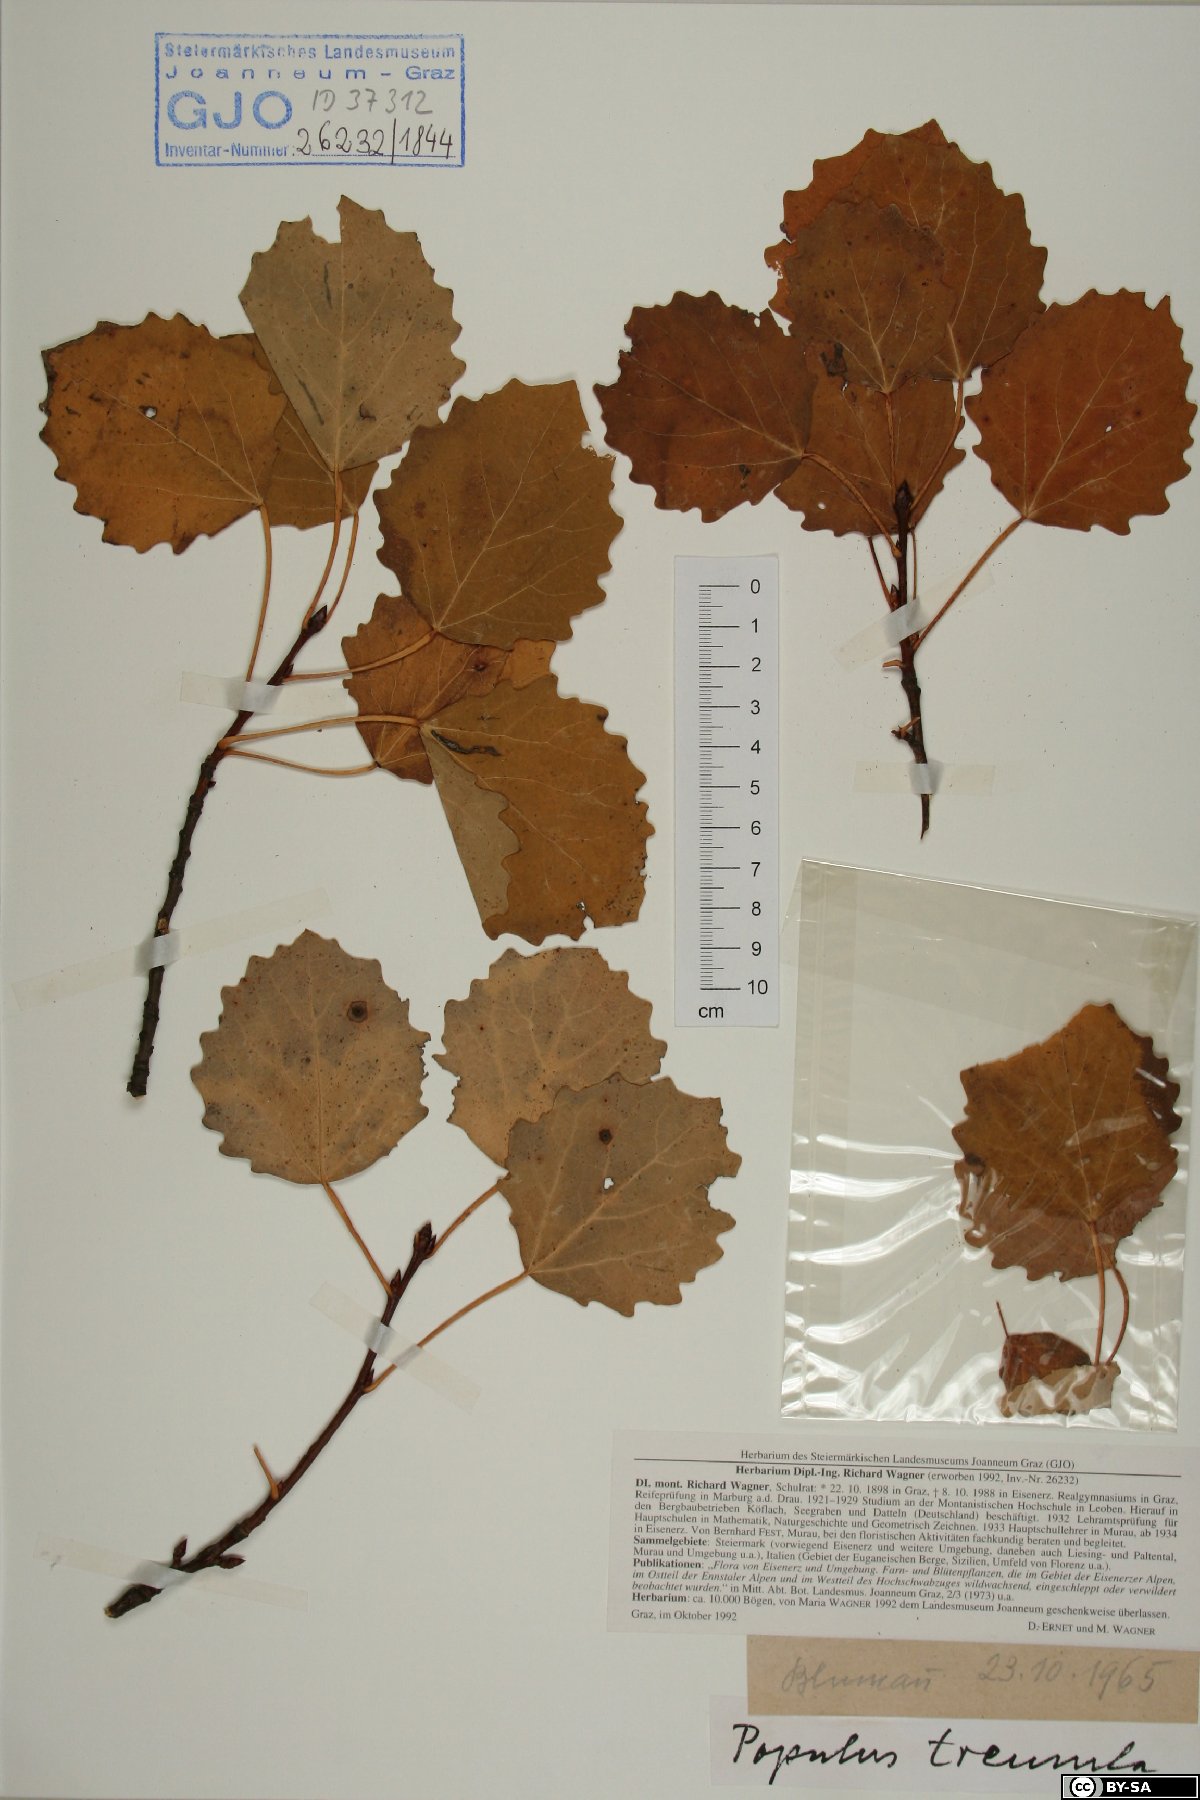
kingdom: Plantae
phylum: Tracheophyta
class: Magnoliopsida
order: Malpighiales
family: Salicaceae
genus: Populus
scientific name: Populus tremula
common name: European aspen
